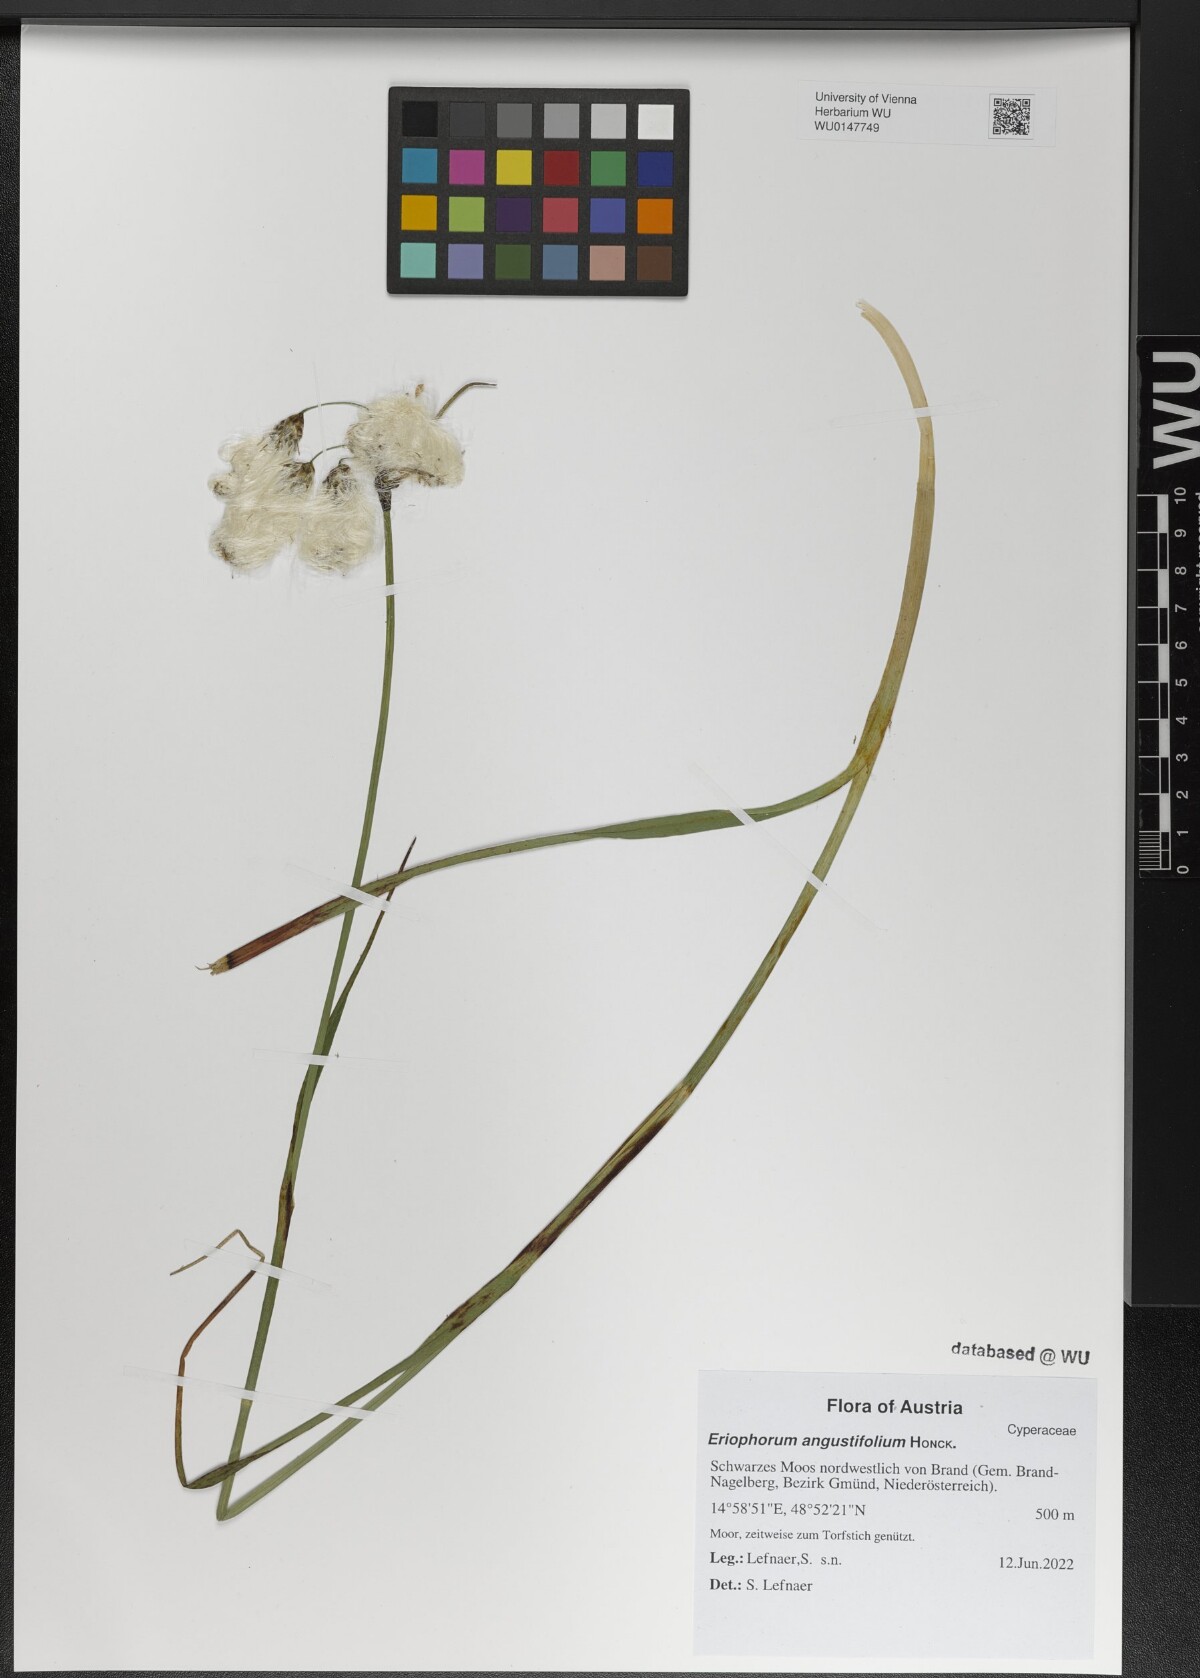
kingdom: Plantae
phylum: Tracheophyta
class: Liliopsida
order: Poales
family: Cyperaceae
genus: Eriophorum
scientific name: Eriophorum angustifolium
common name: Common cottongrass
